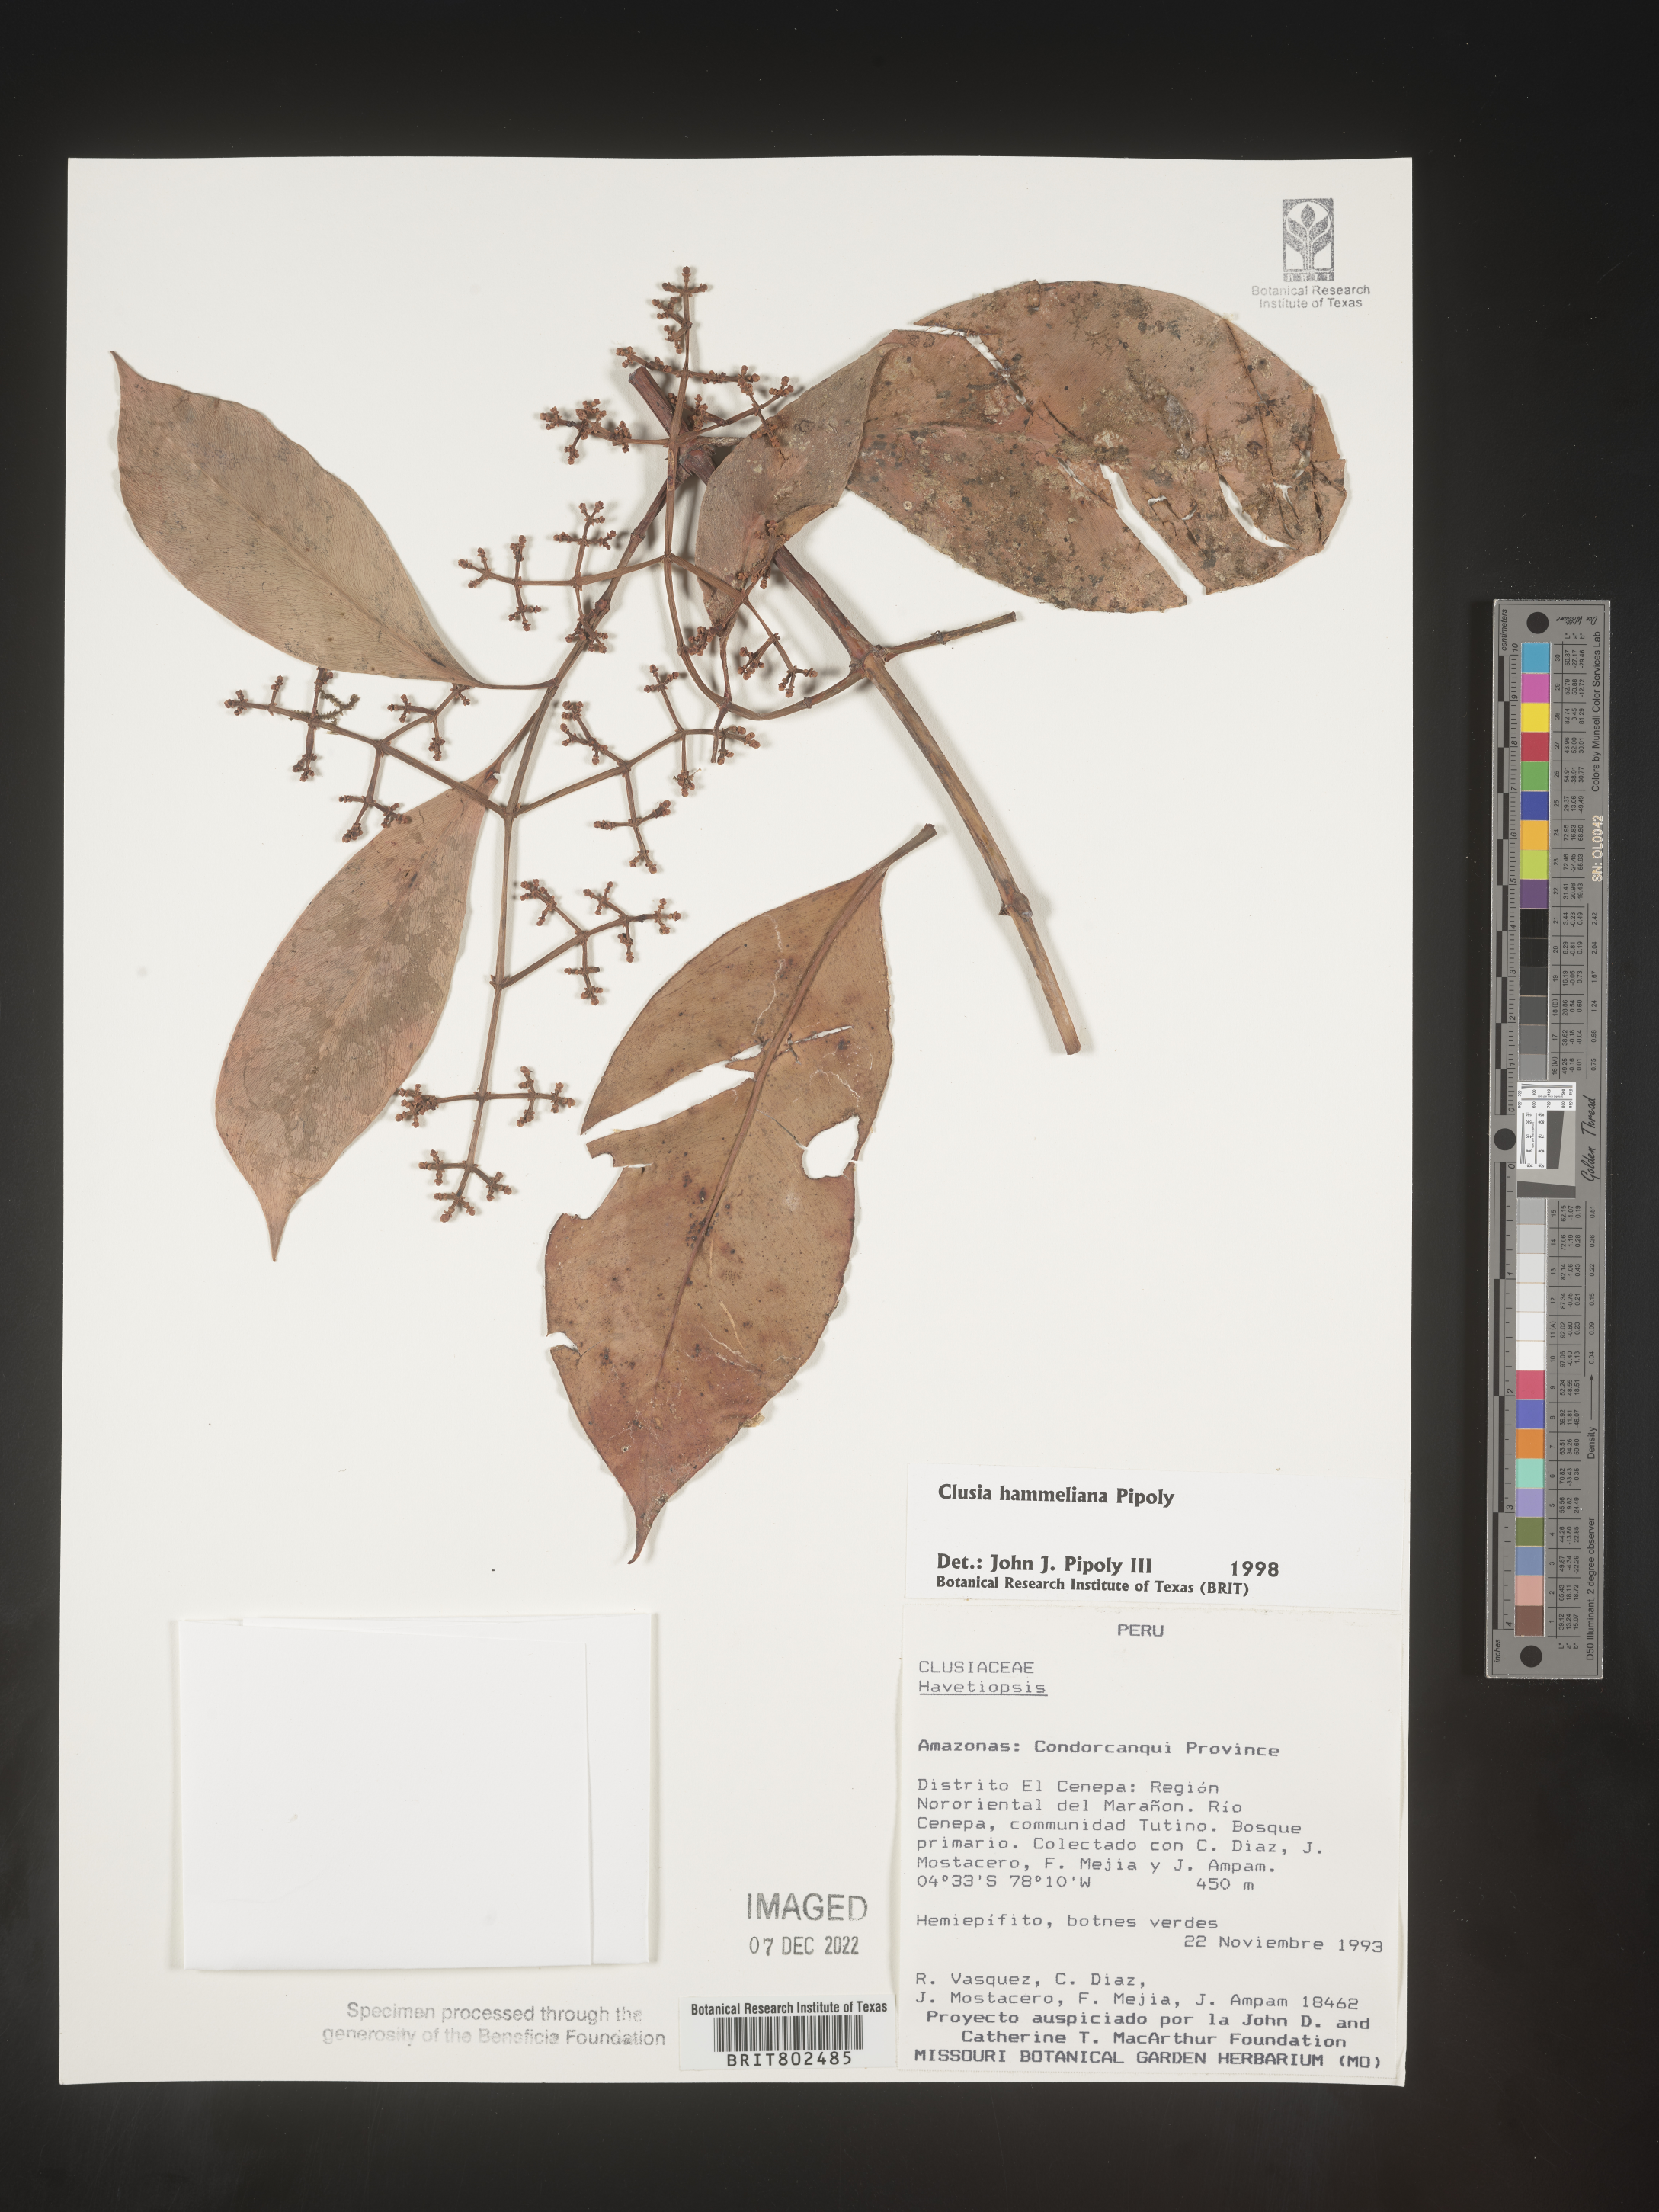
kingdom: Plantae
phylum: Tracheophyta
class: Magnoliopsida
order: Malpighiales
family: Clusiaceae
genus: Clusia
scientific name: Clusia hammeliana
